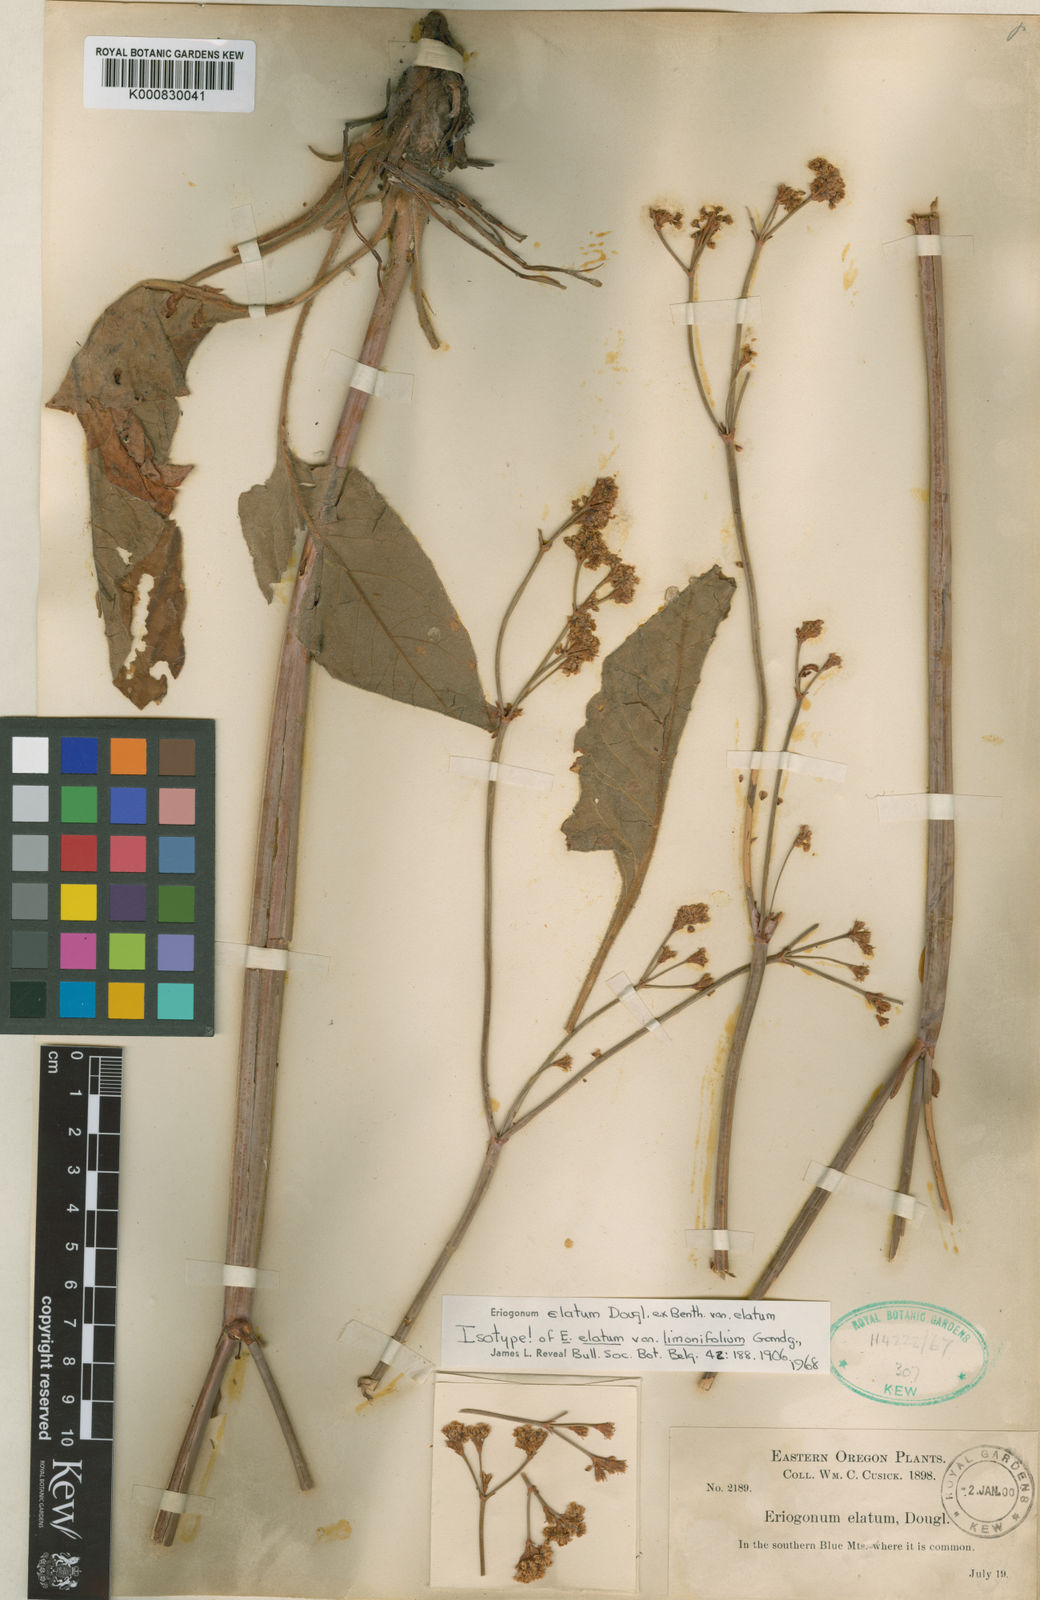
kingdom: Plantae
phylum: Tracheophyta
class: Magnoliopsida
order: Caryophyllales
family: Polygonaceae
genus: Eriogonum
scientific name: Eriogonum elatum
